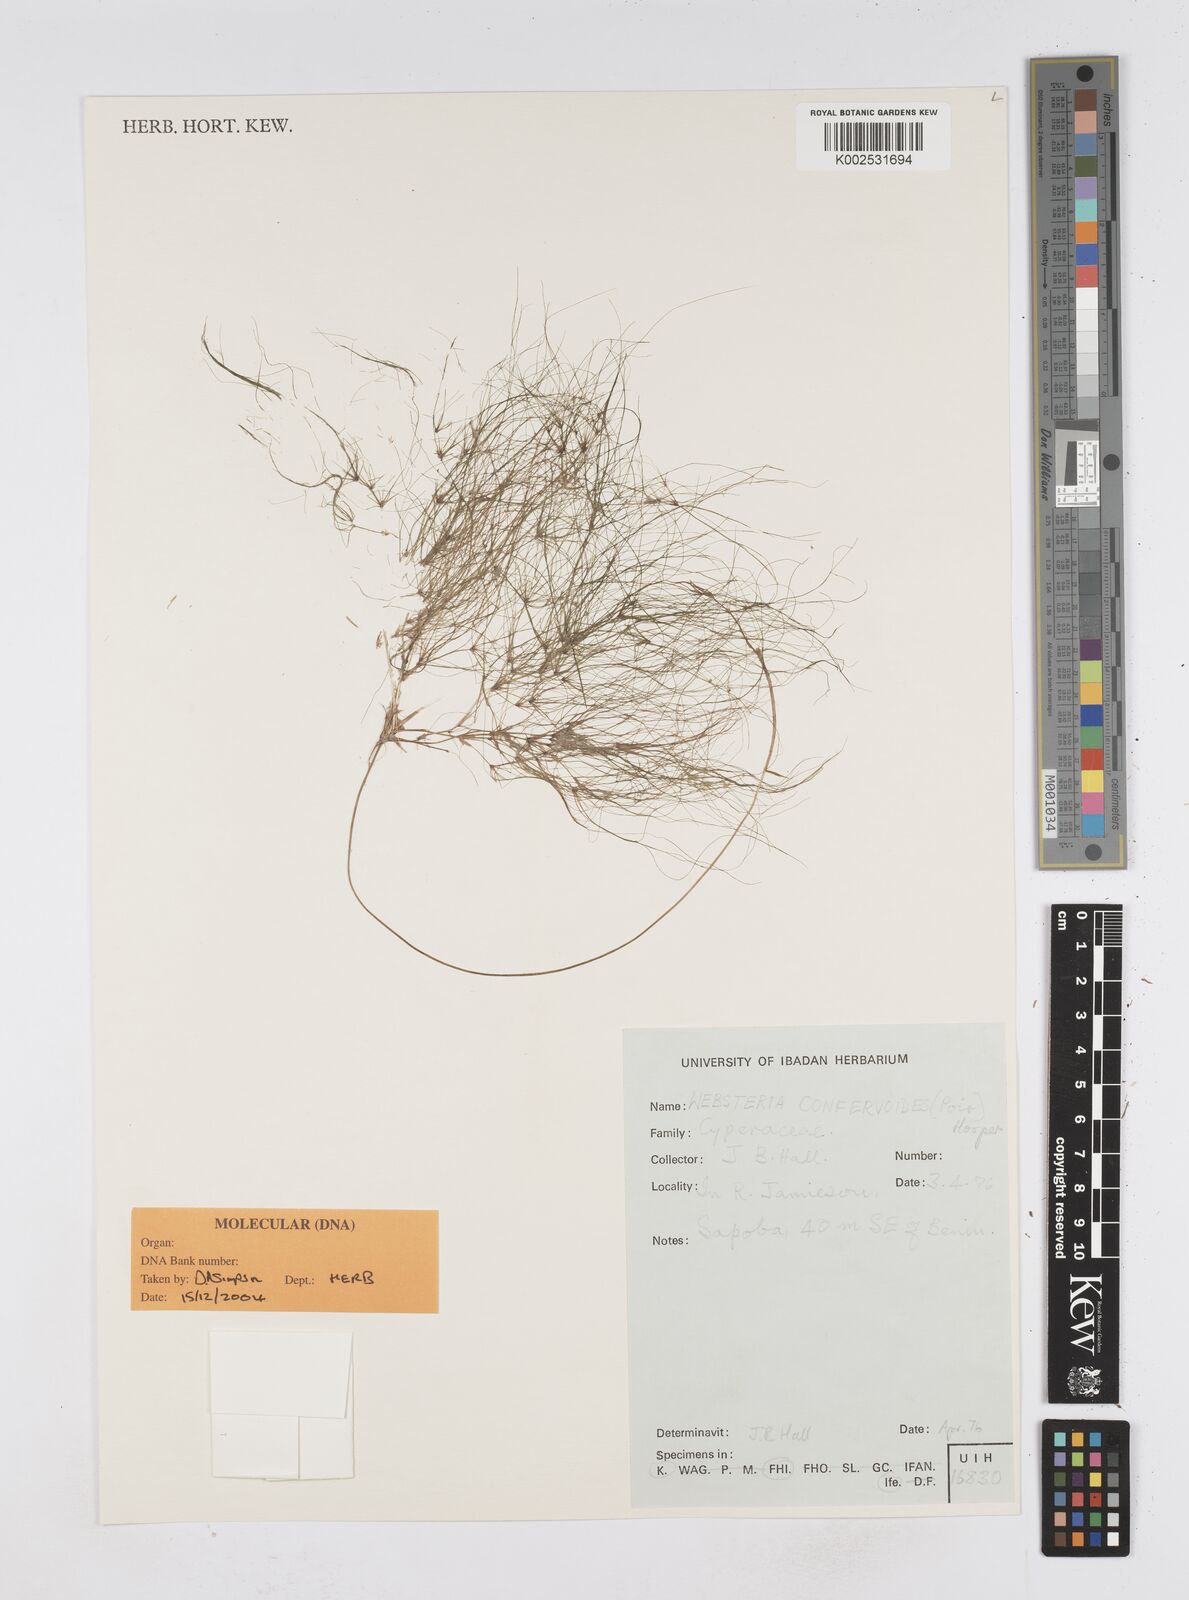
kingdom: Plantae
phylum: Tracheophyta
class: Liliopsida
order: Poales
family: Cyperaceae
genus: Eleocharis
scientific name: Eleocharis confervoides
